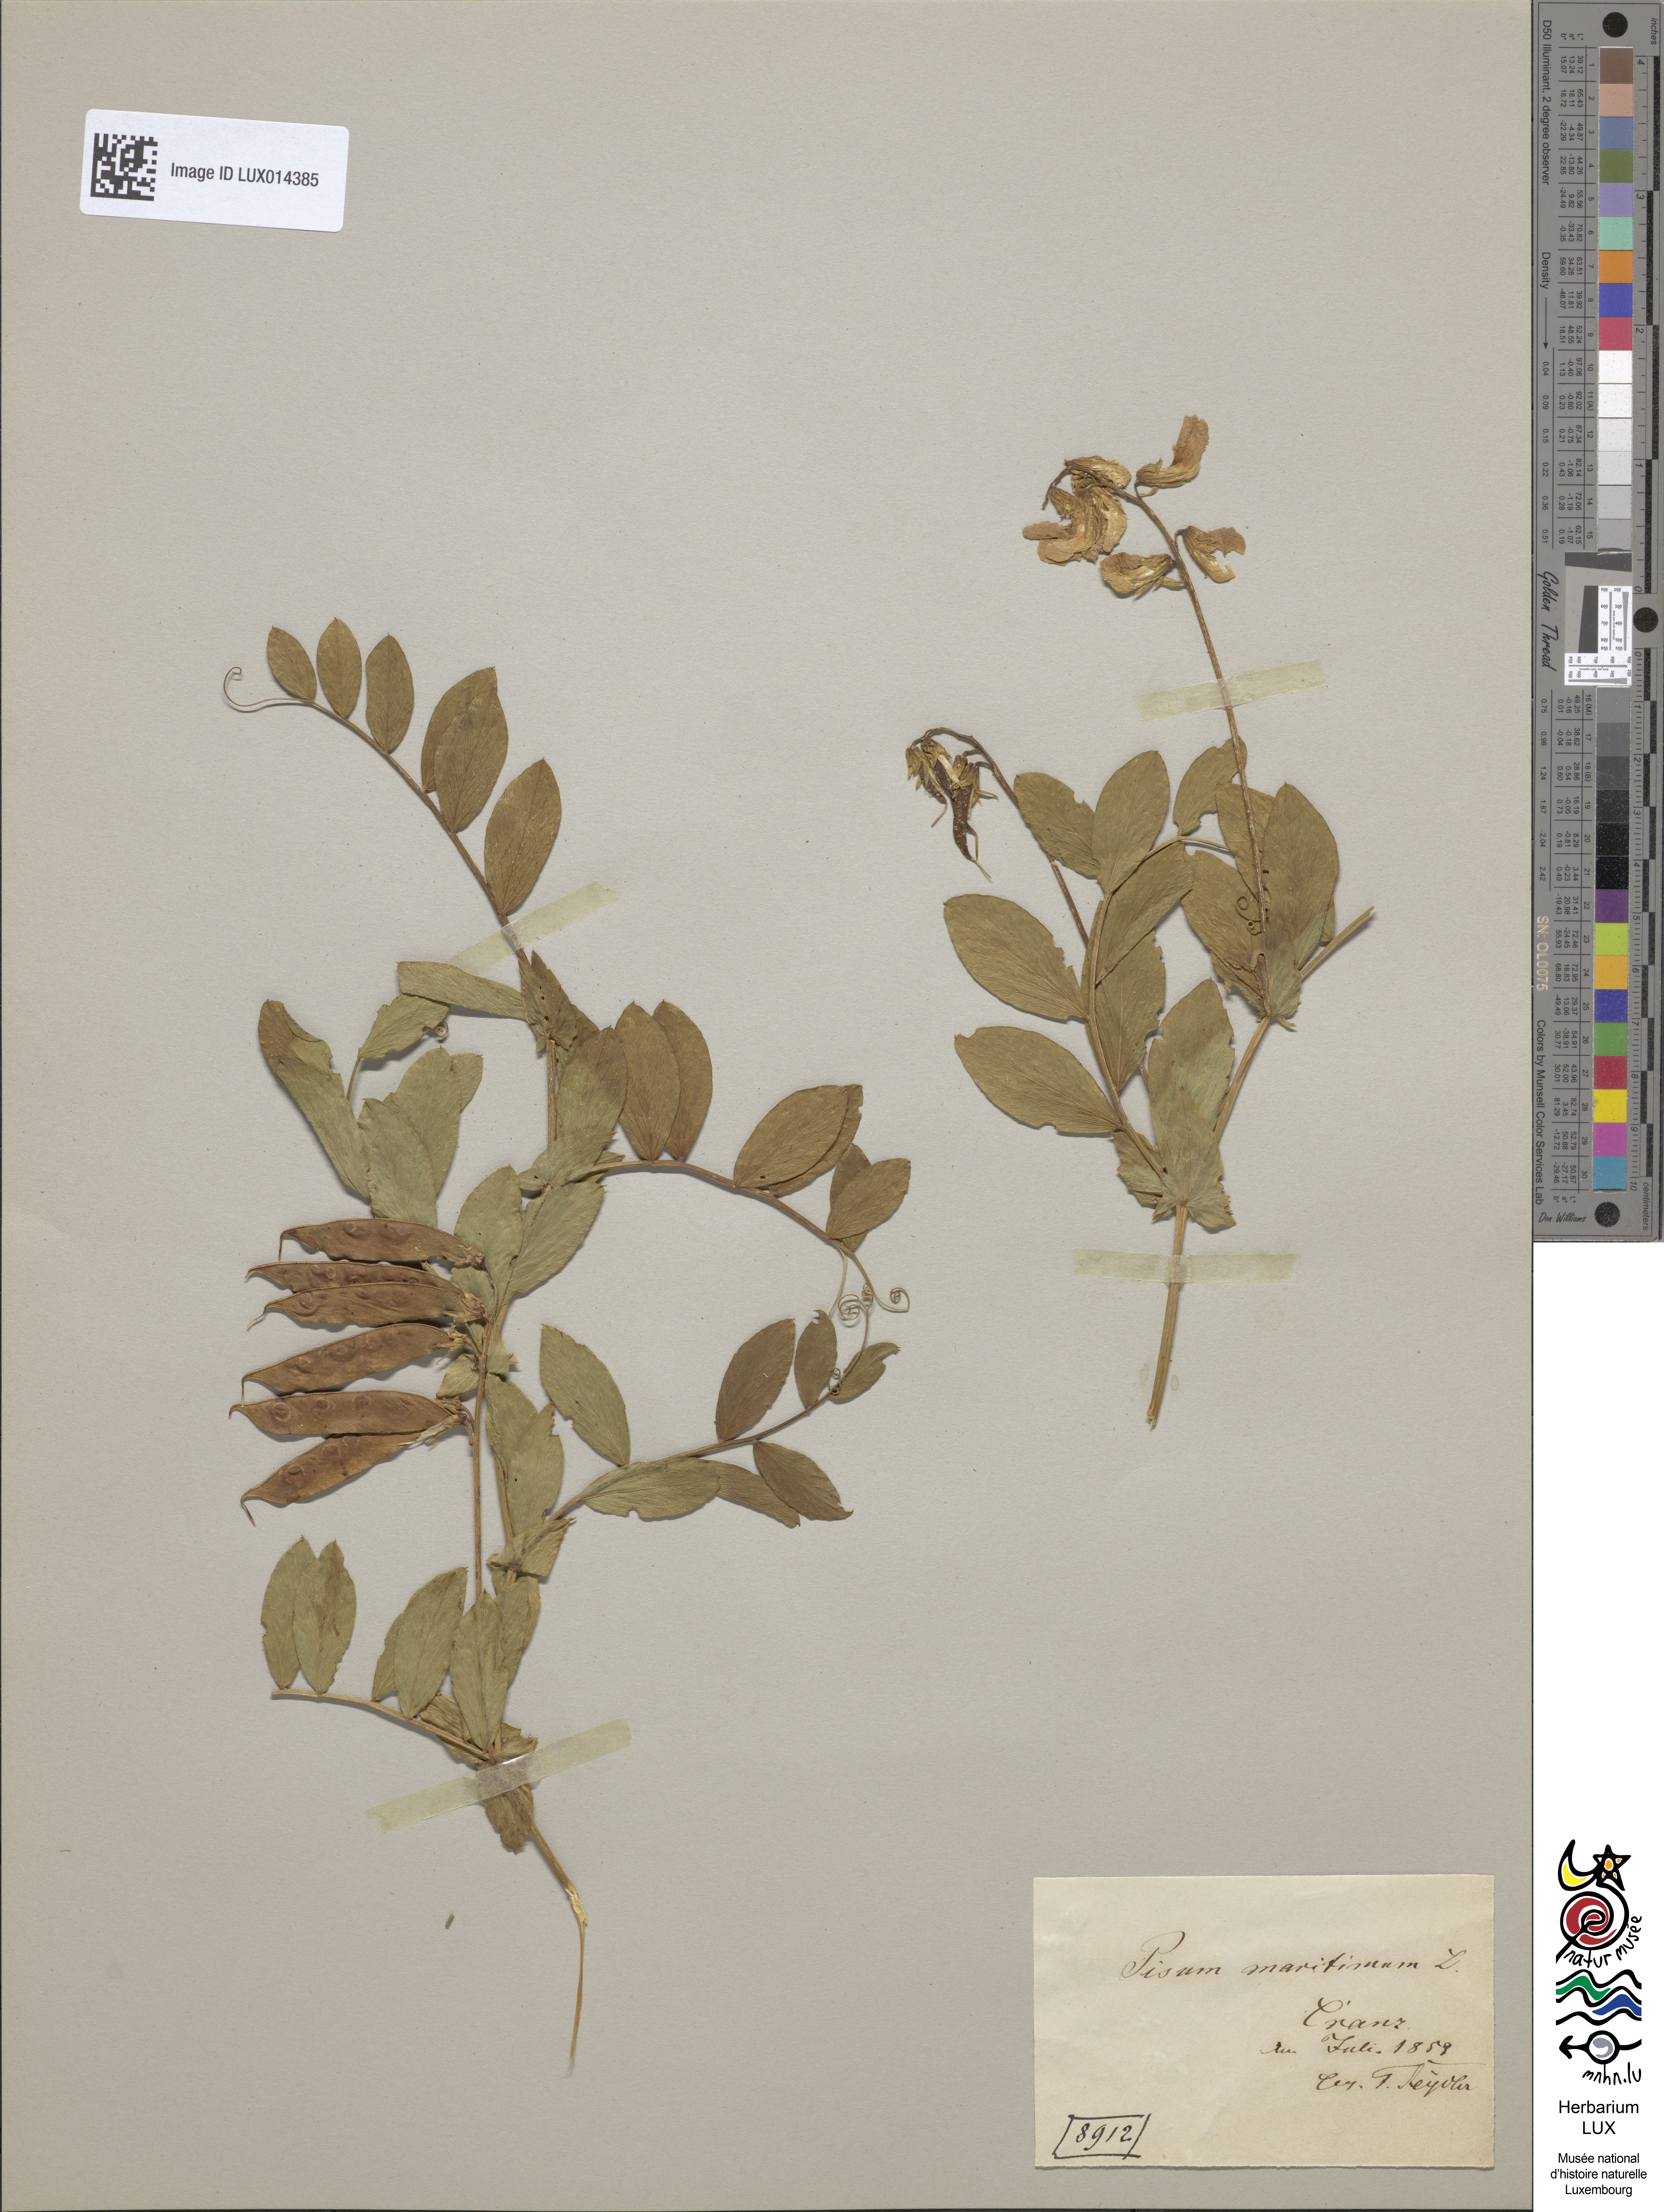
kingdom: Plantae
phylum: Tracheophyta
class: Magnoliopsida
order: Fabales
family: Fabaceae
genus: Lathyrus
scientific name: Lathyrus japonicus
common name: Sea pea
